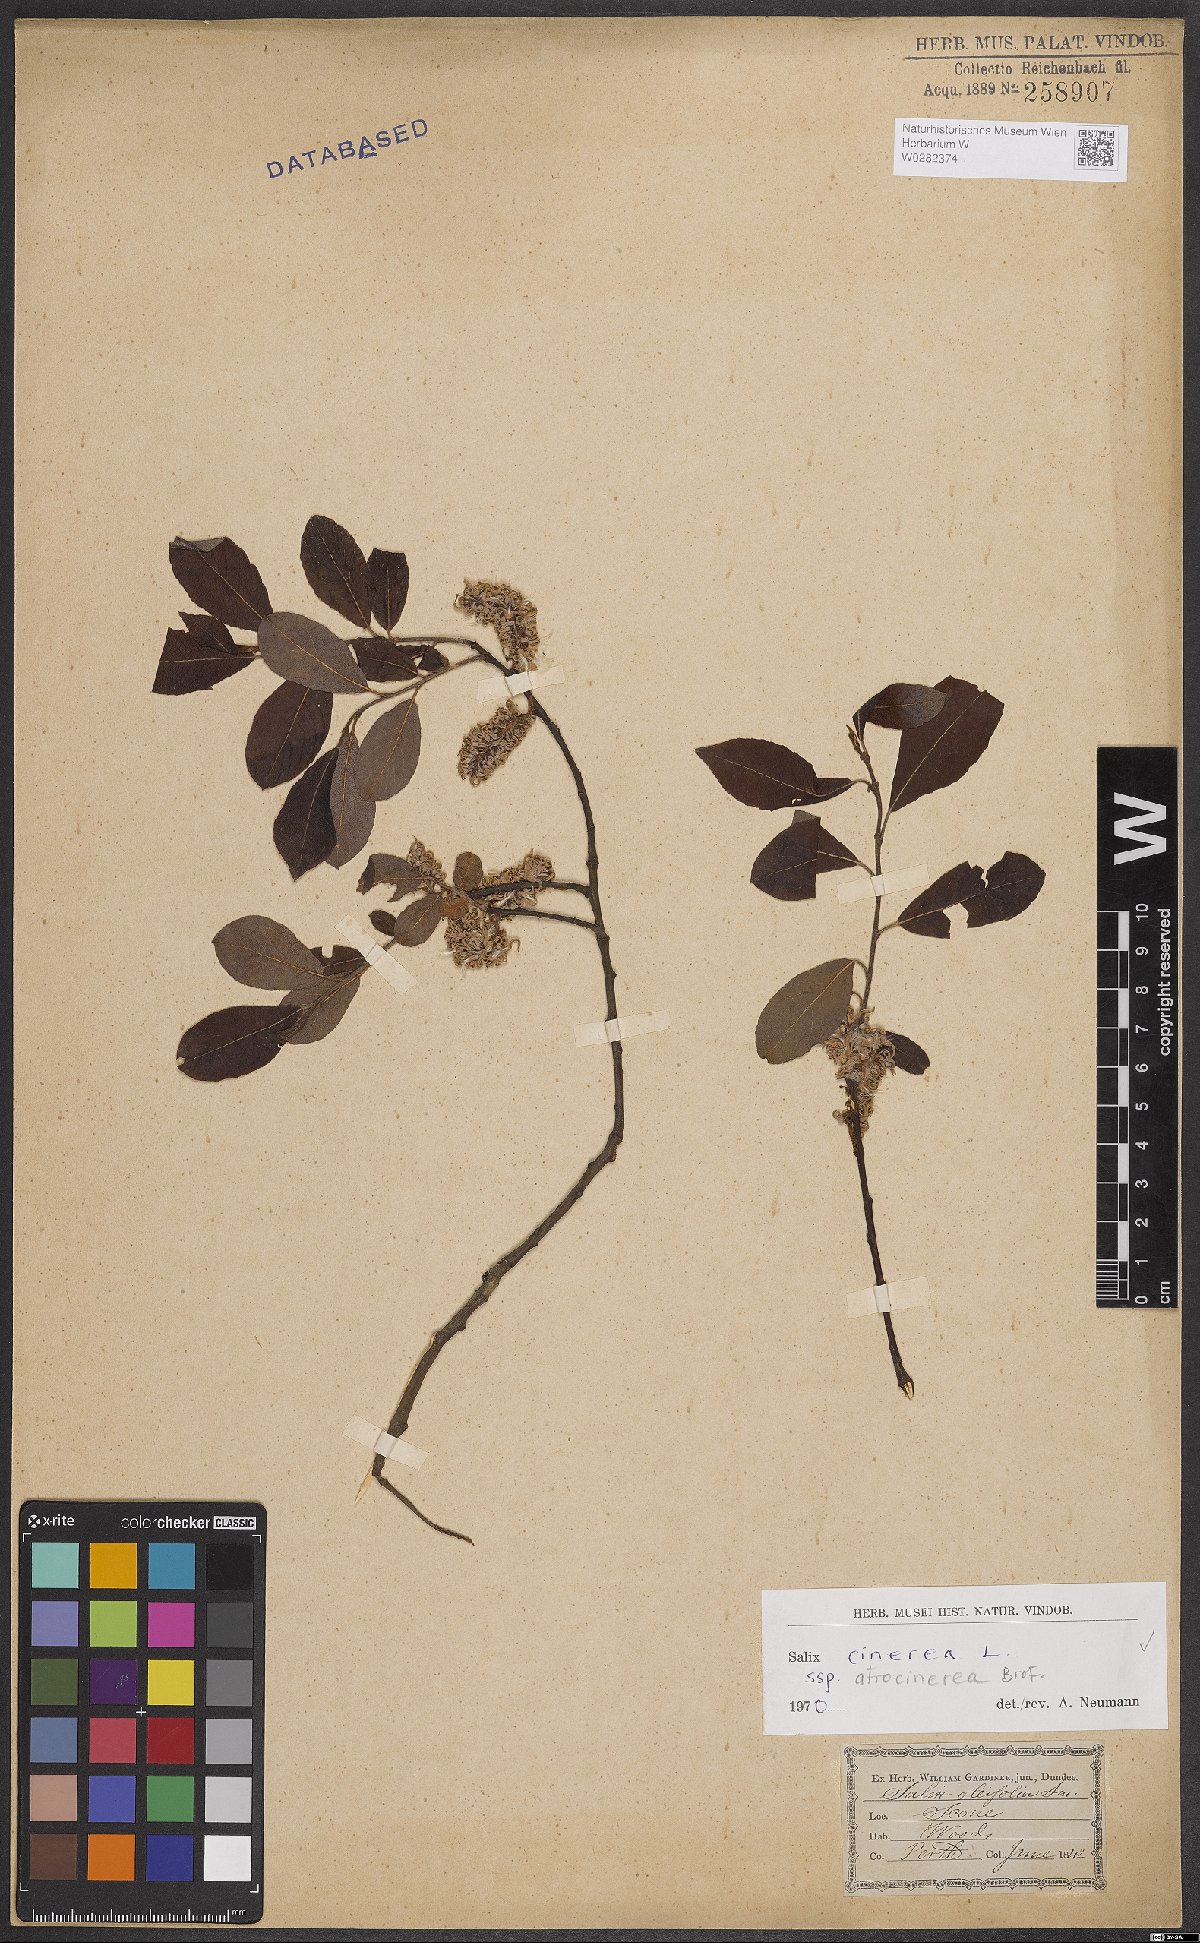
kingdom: Plantae
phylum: Tracheophyta
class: Magnoliopsida
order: Malpighiales
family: Salicaceae
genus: Salix
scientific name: Salix atrocinerea
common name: Rusty willow
